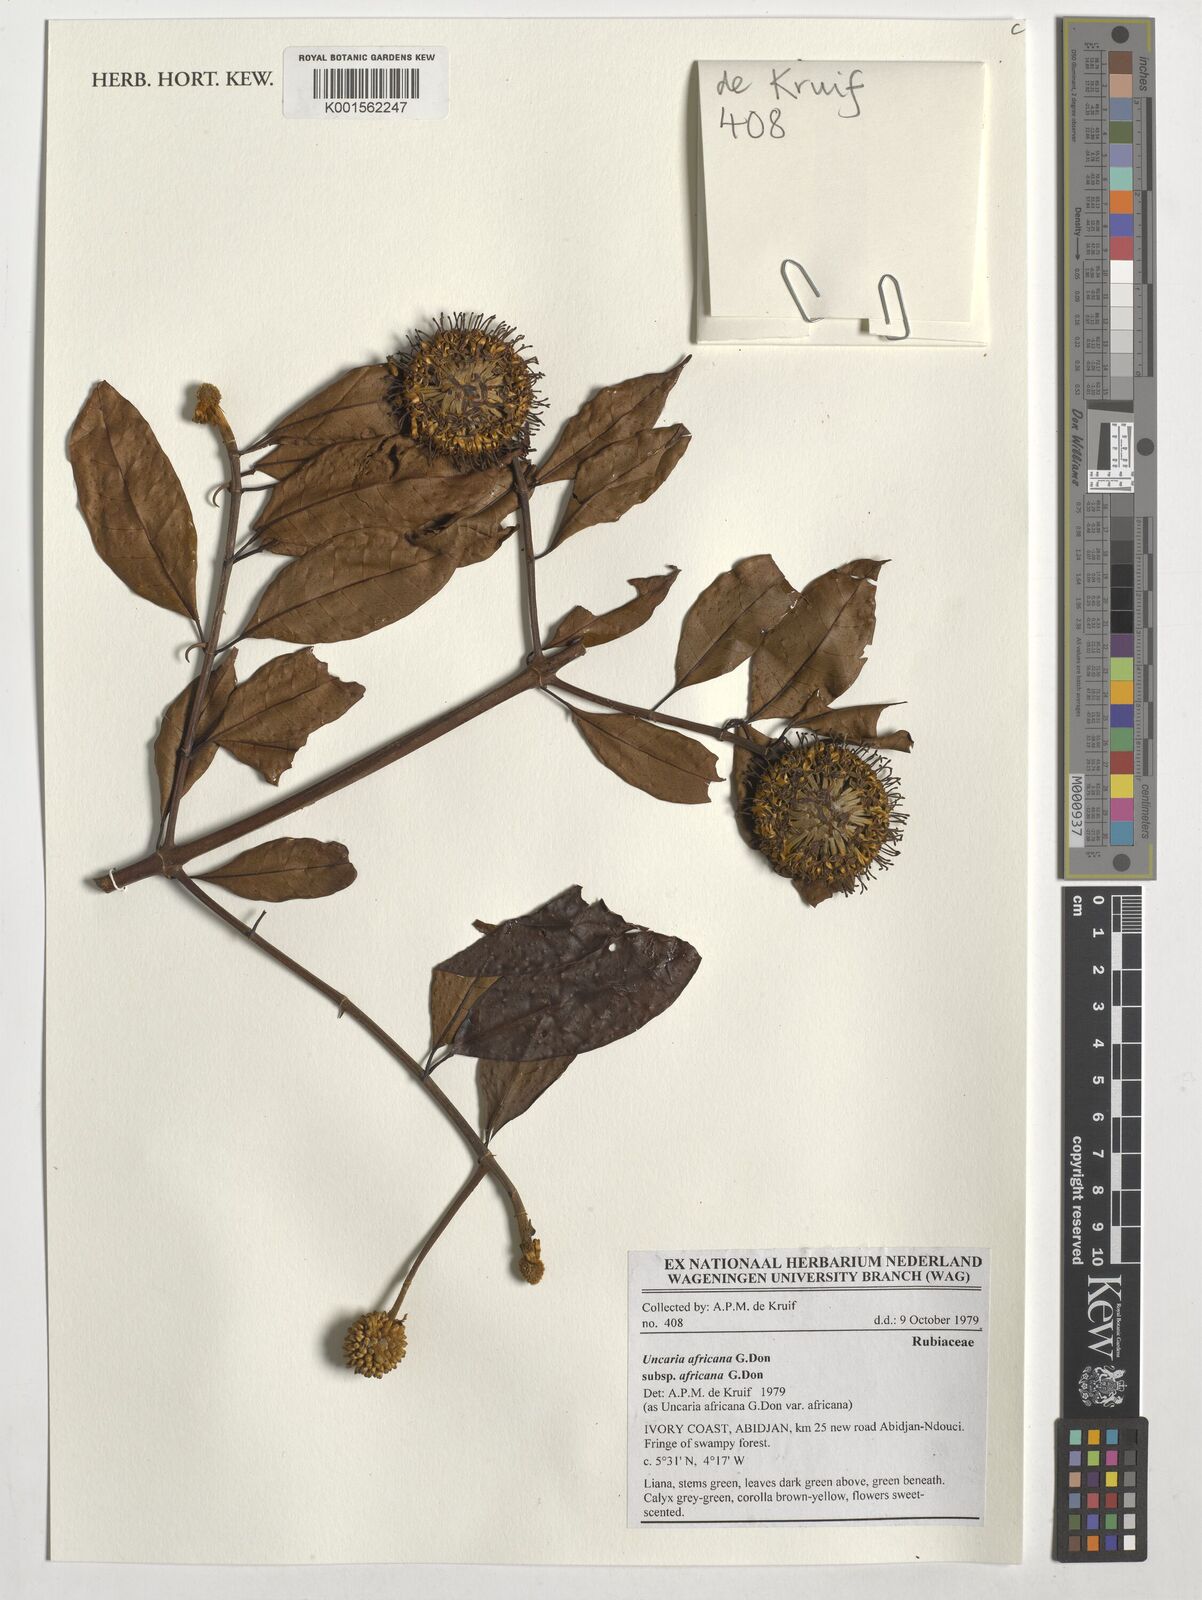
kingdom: Plantae
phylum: Tracheophyta
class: Magnoliopsida
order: Gentianales
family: Rubiaceae
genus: Uncaria
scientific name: Uncaria africana
